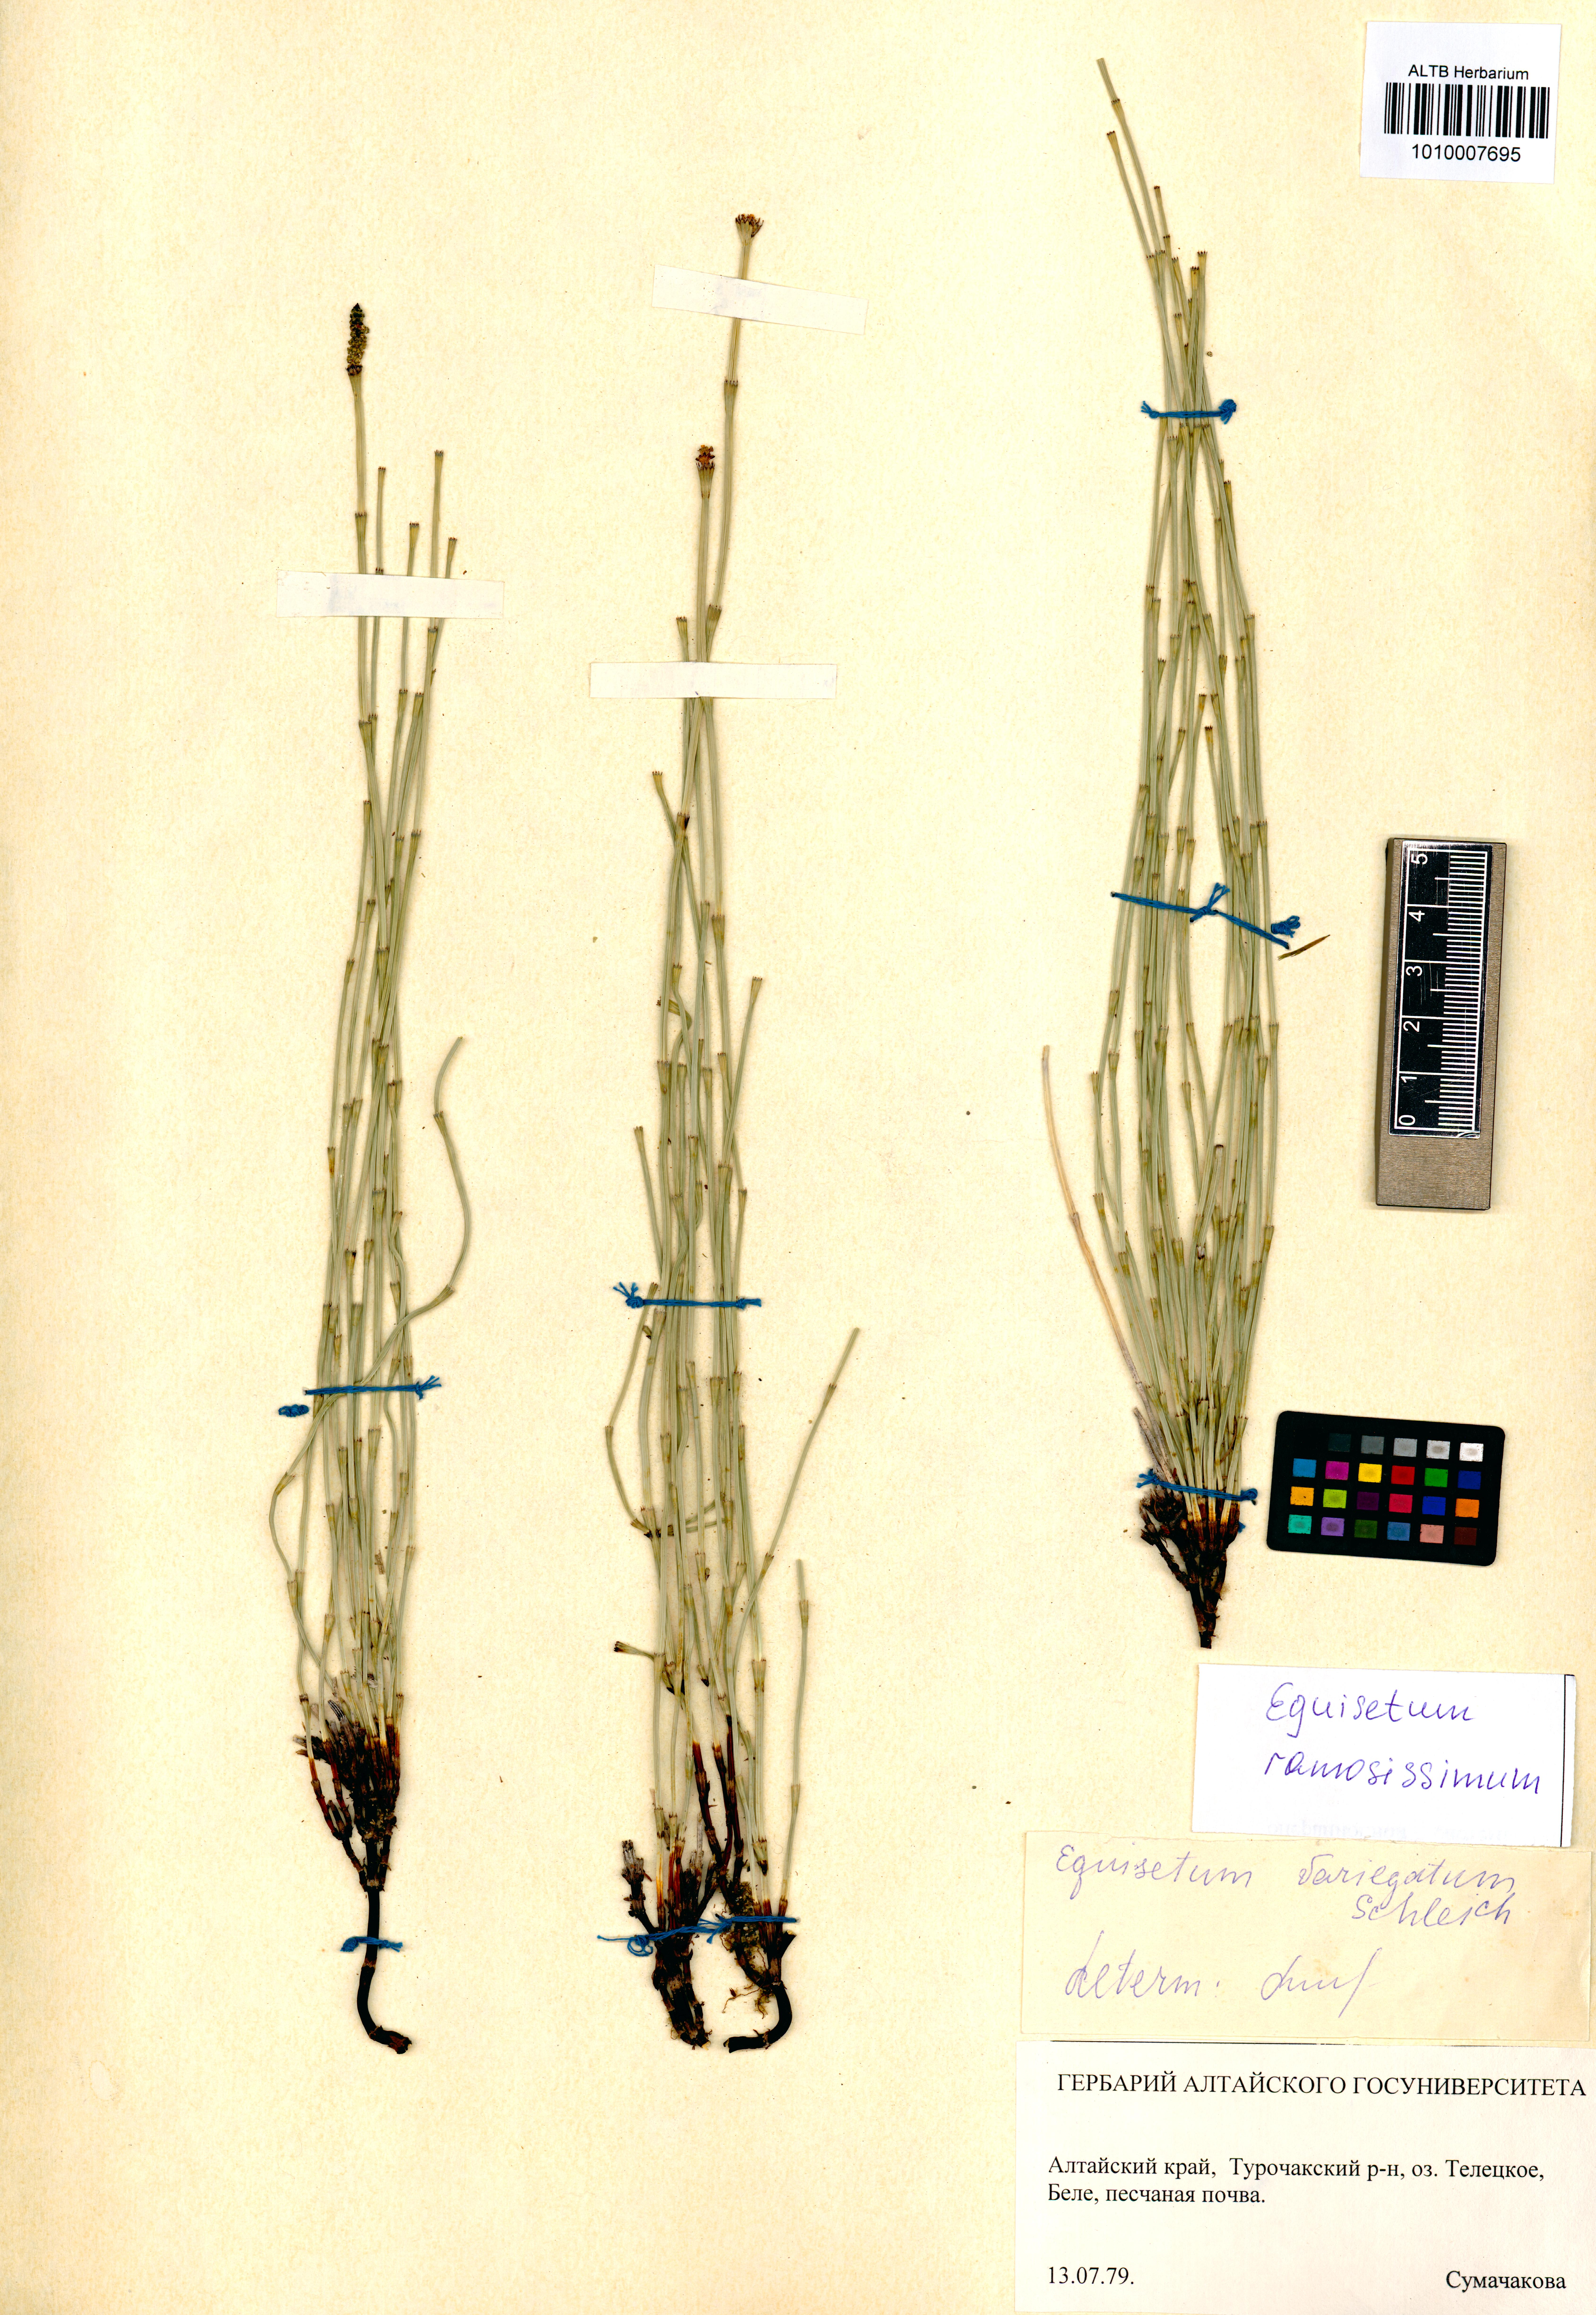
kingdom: Plantae
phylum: Tracheophyta
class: Polypodiopsida
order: Equisetales
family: Equisetaceae
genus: Equisetum
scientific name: Equisetum ramosissimum
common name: Branched horsetail
